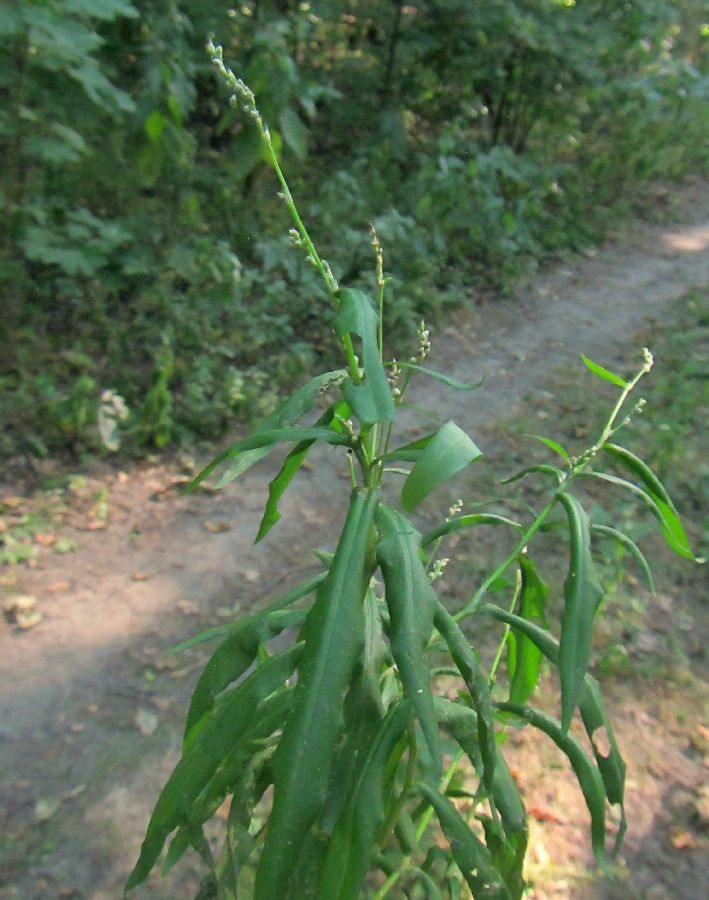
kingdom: Plantae
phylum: Tracheophyta
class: Magnoliopsida
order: Caryophyllales
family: Polygonaceae
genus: Persicaria
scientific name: Persicaria minor
